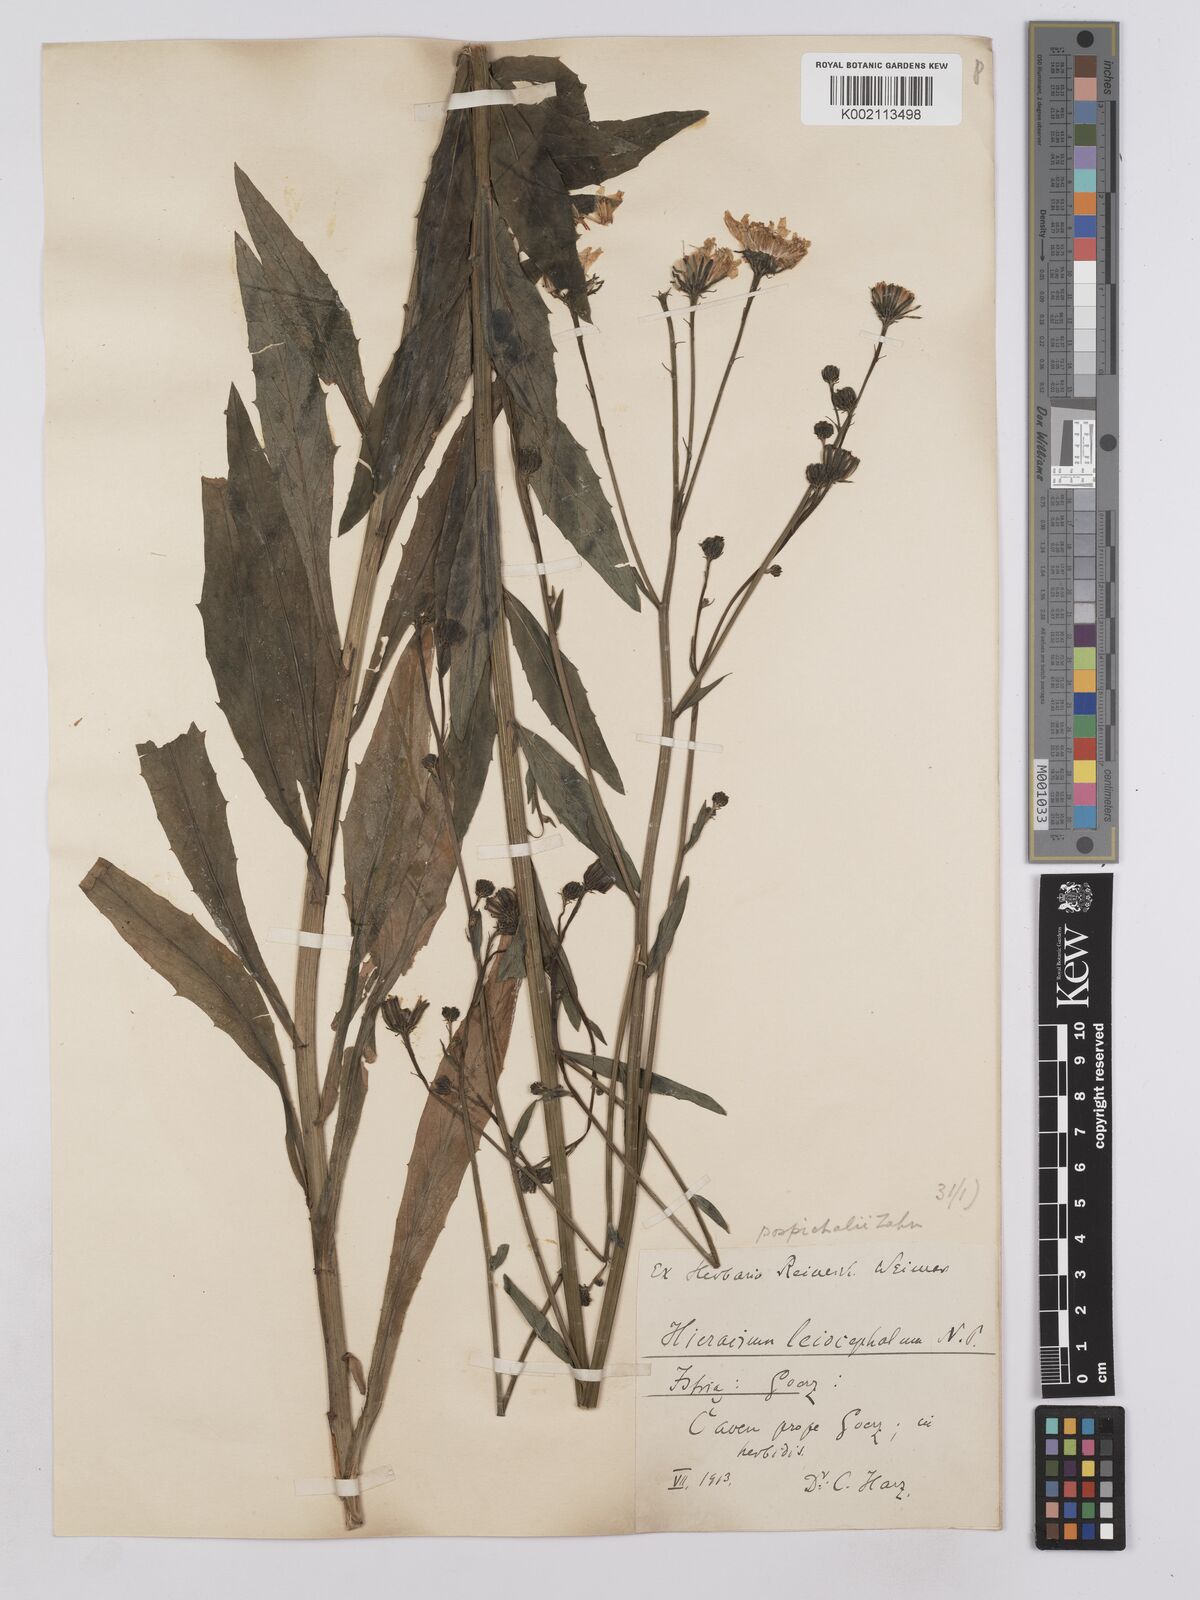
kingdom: Plantae
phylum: Tracheophyta
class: Magnoliopsida
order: Asterales
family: Asteraceae
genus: Hieracium
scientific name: Hieracium leiocephalum
